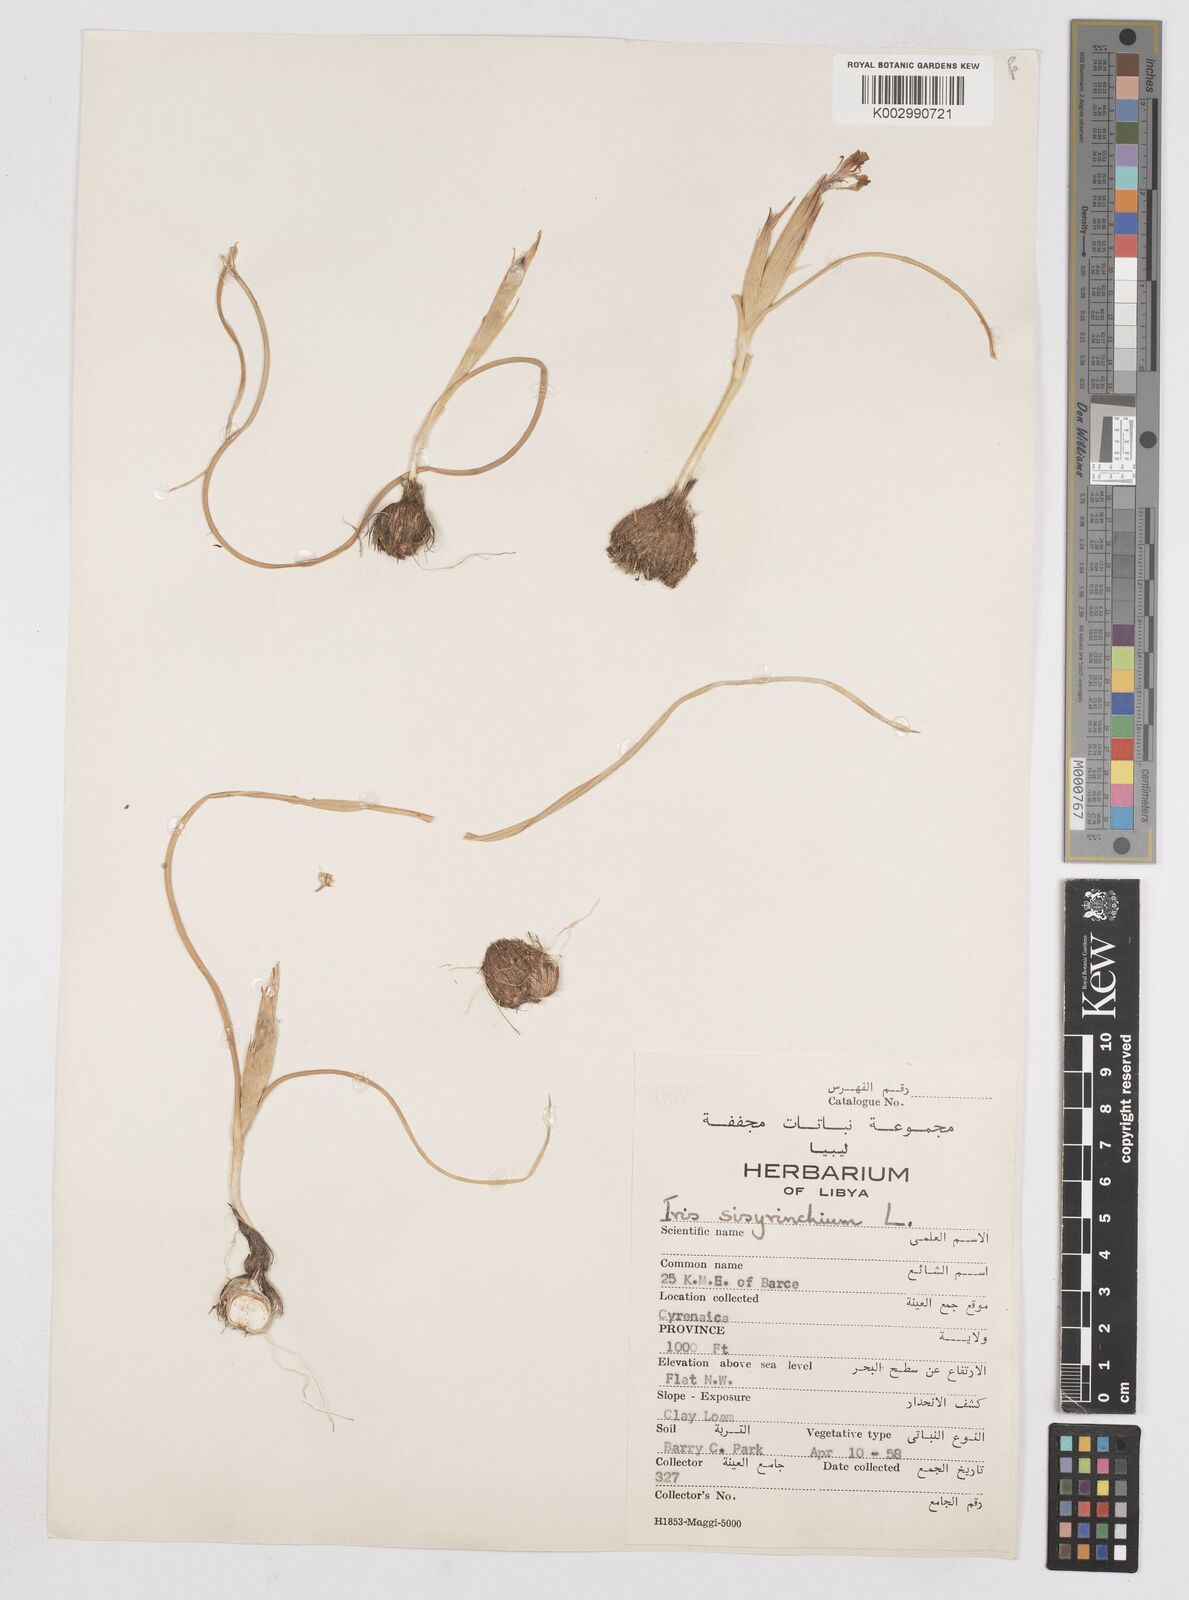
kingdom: Plantae
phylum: Tracheophyta
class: Liliopsida
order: Asparagales
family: Iridaceae
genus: Moraea
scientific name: Moraea sisyrinchium
